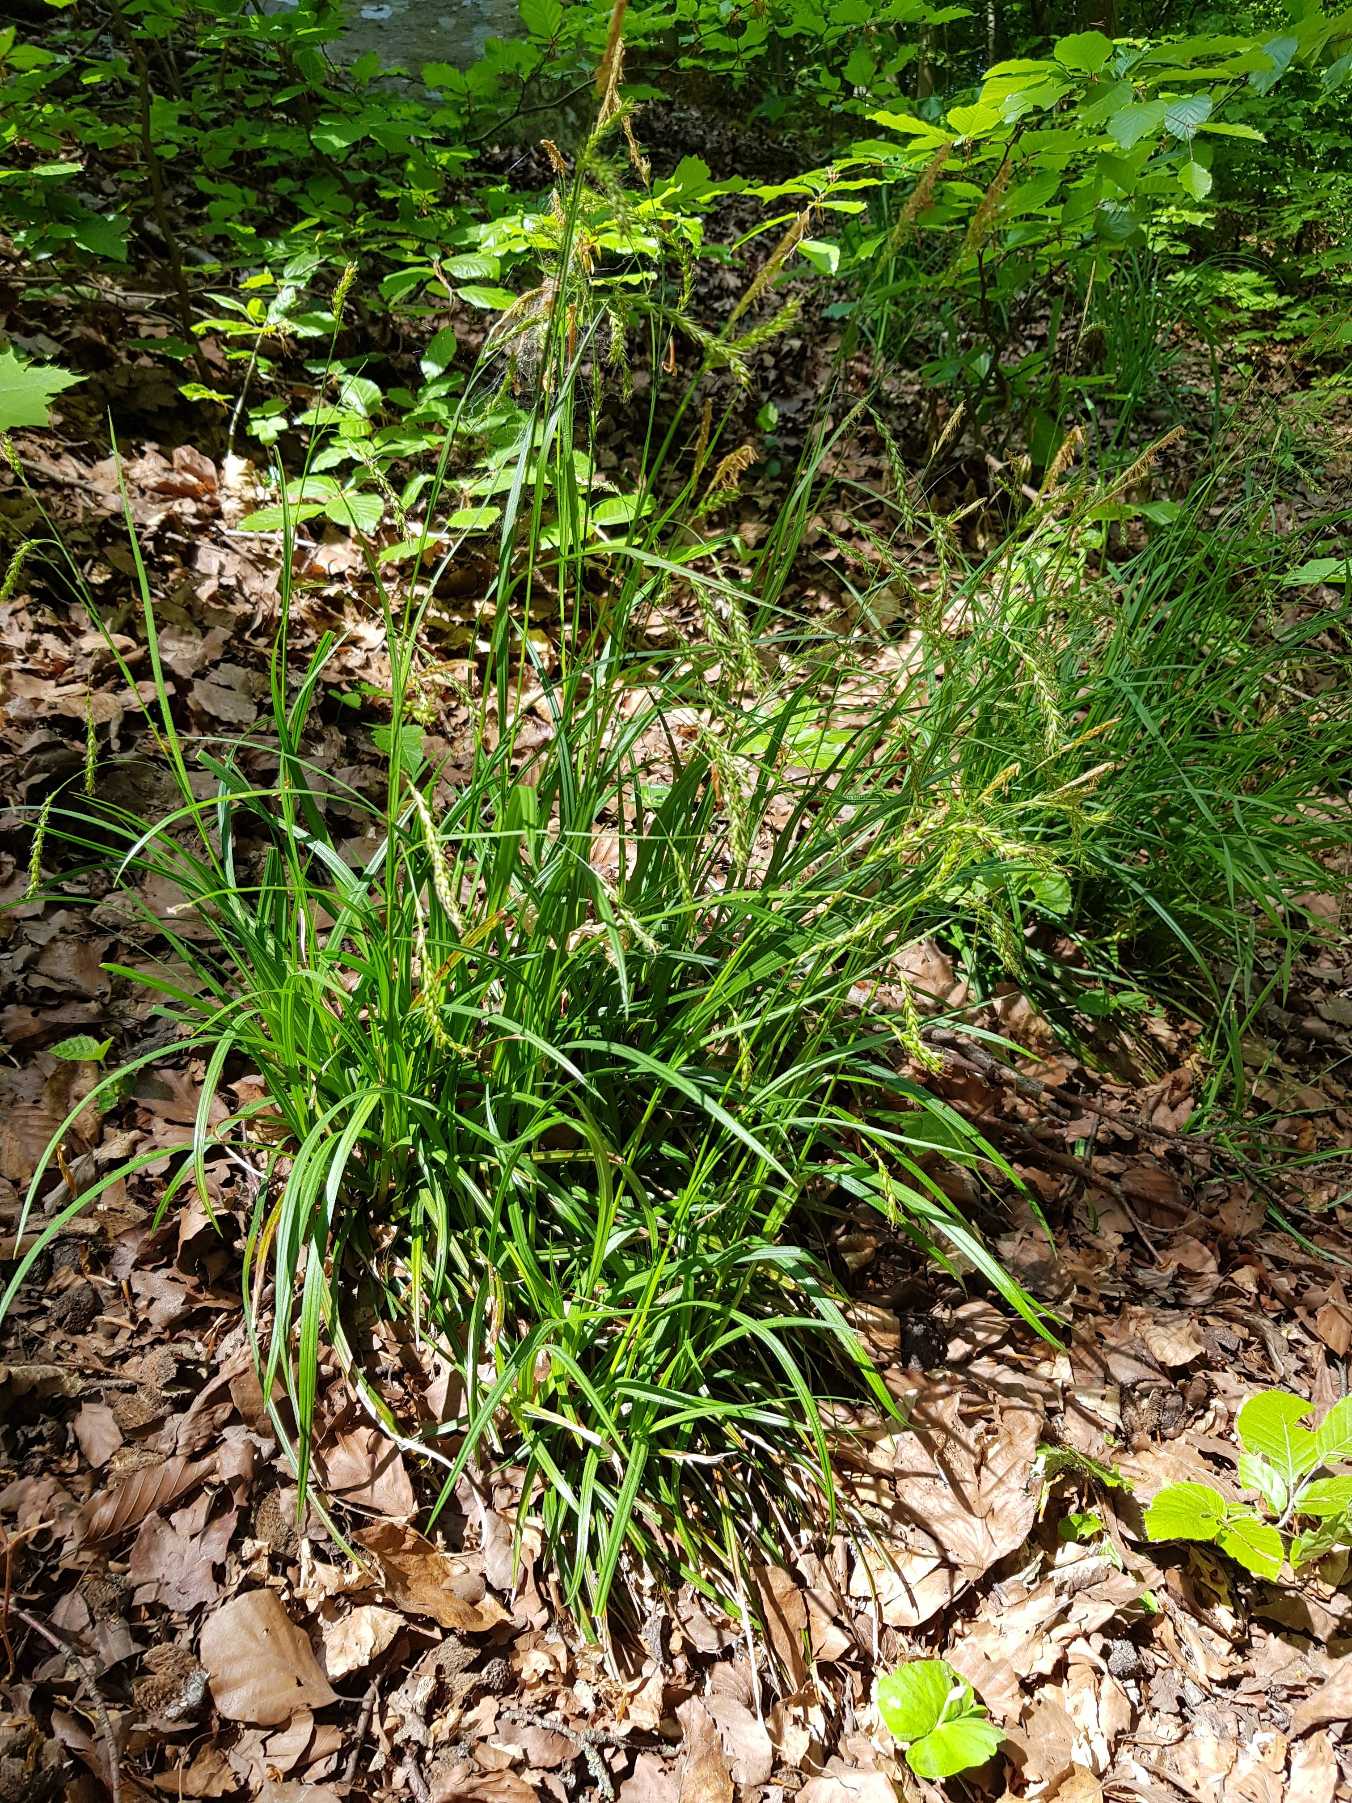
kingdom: Plantae
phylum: Tracheophyta
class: Liliopsida
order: Poales
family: Cyperaceae
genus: Carex
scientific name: Carex sylvatica
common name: Skov-star
